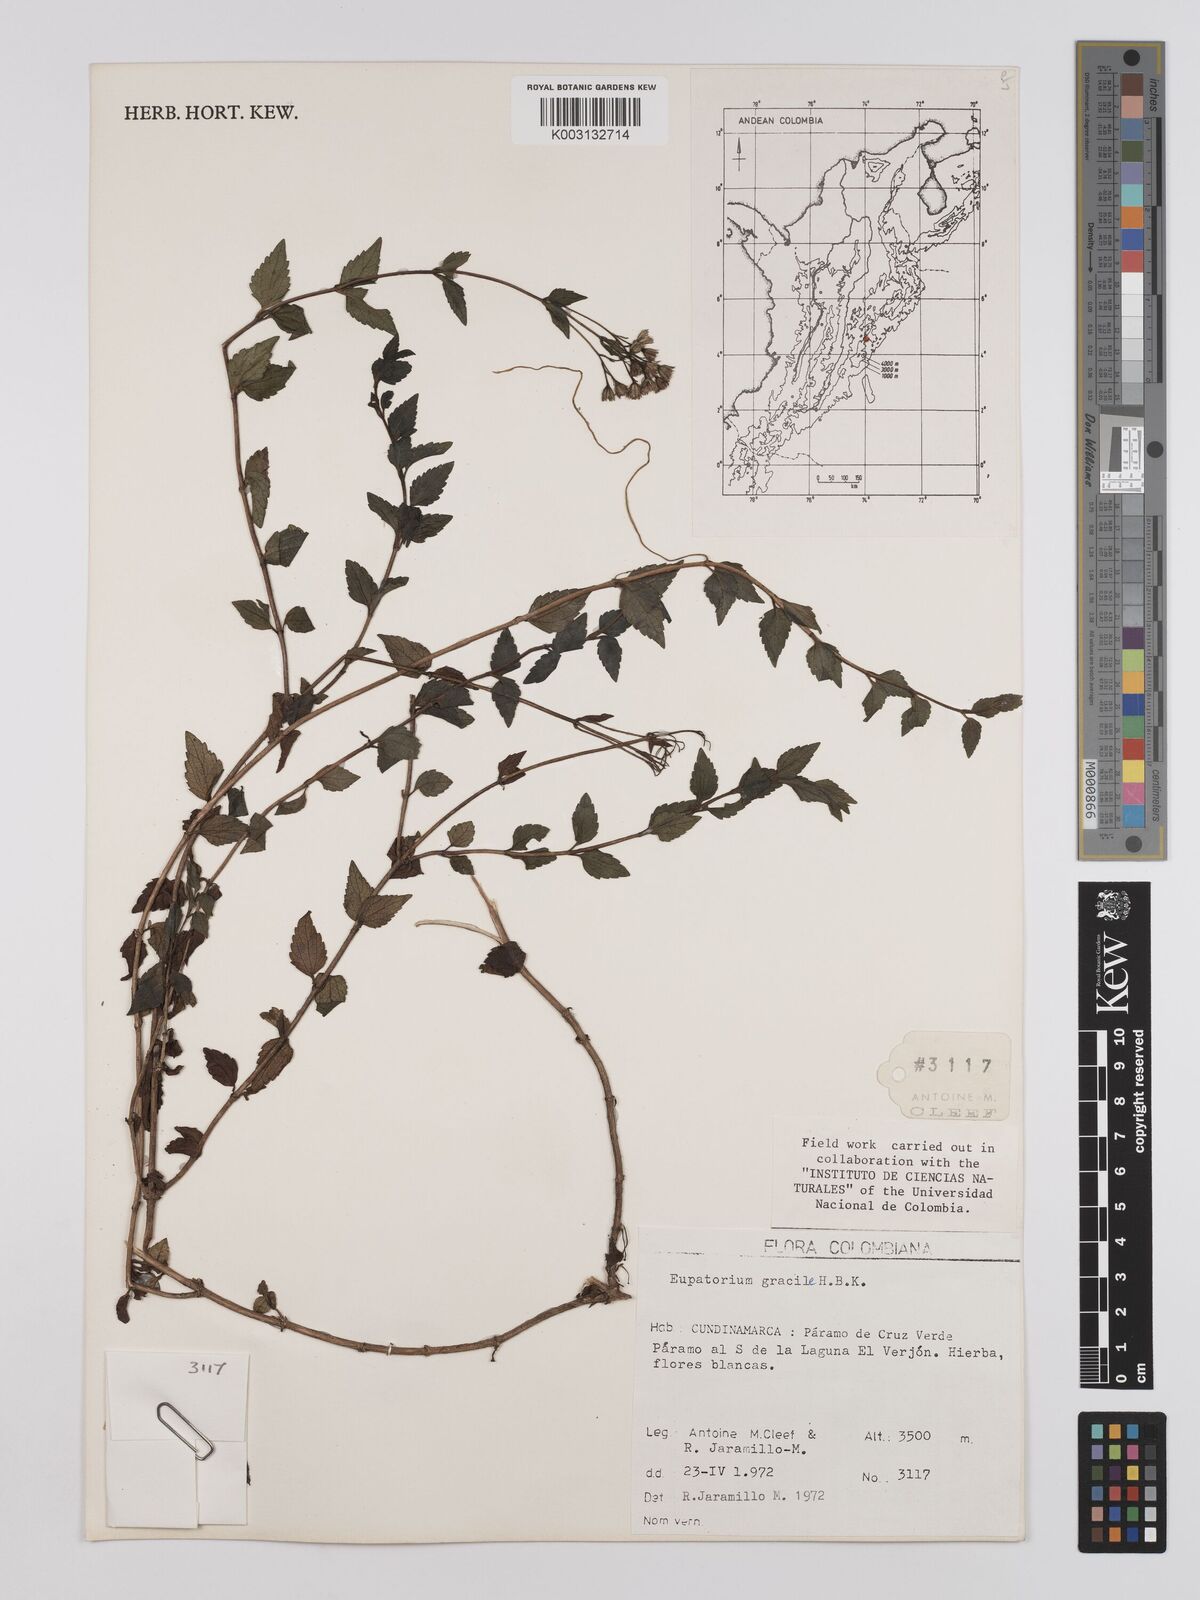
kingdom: Plantae
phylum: Tracheophyta
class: Magnoliopsida
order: Asterales
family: Asteraceae
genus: Ageratina
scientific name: Ageratina gracilis
